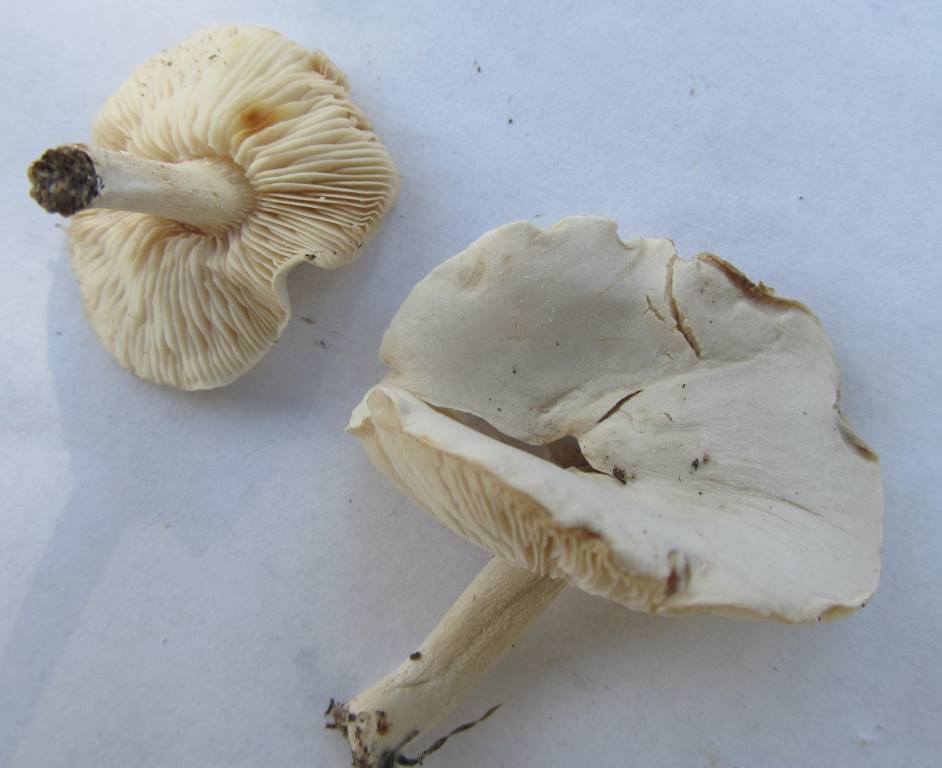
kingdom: Fungi
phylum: Basidiomycota
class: Agaricomycetes
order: Agaricales
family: Tricholomataceae
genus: Melanoleuca
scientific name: Melanoleuca exscissa
